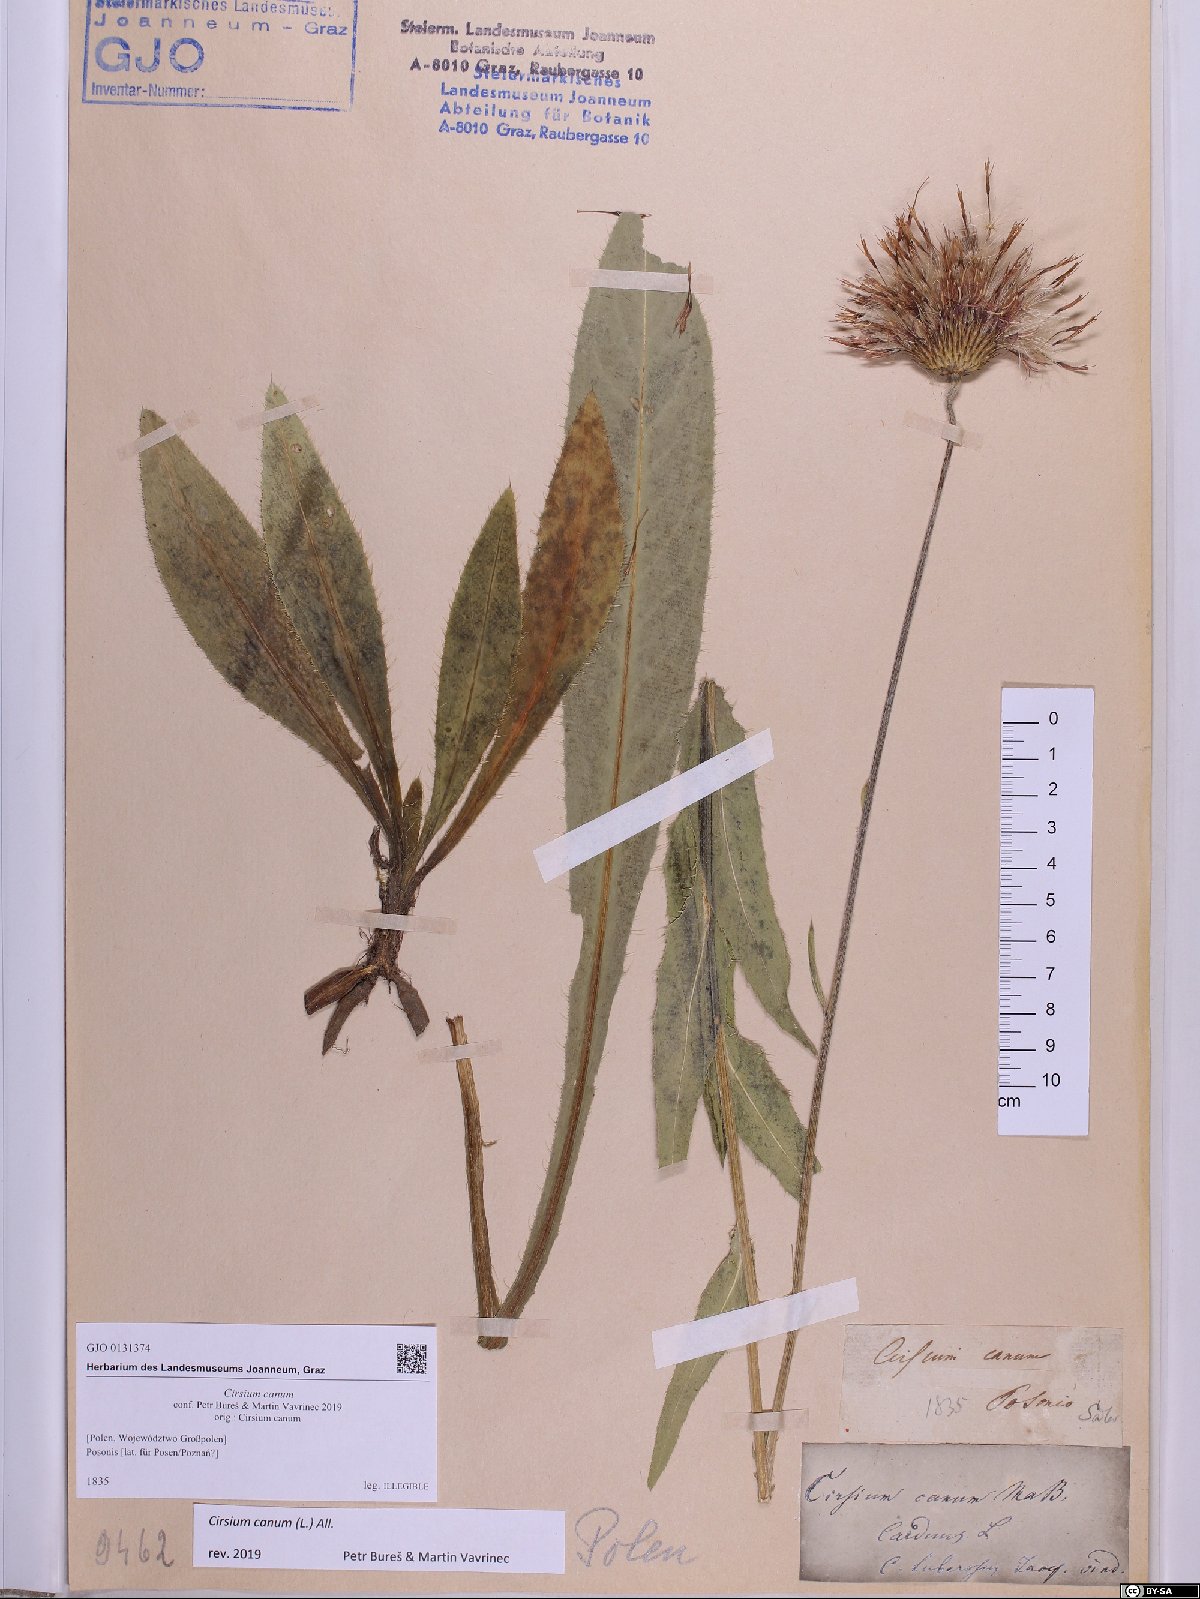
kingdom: Plantae
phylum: Tracheophyta
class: Magnoliopsida
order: Asterales
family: Asteraceae
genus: Cirsium
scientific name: Cirsium canum
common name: Queen anne's thistle
